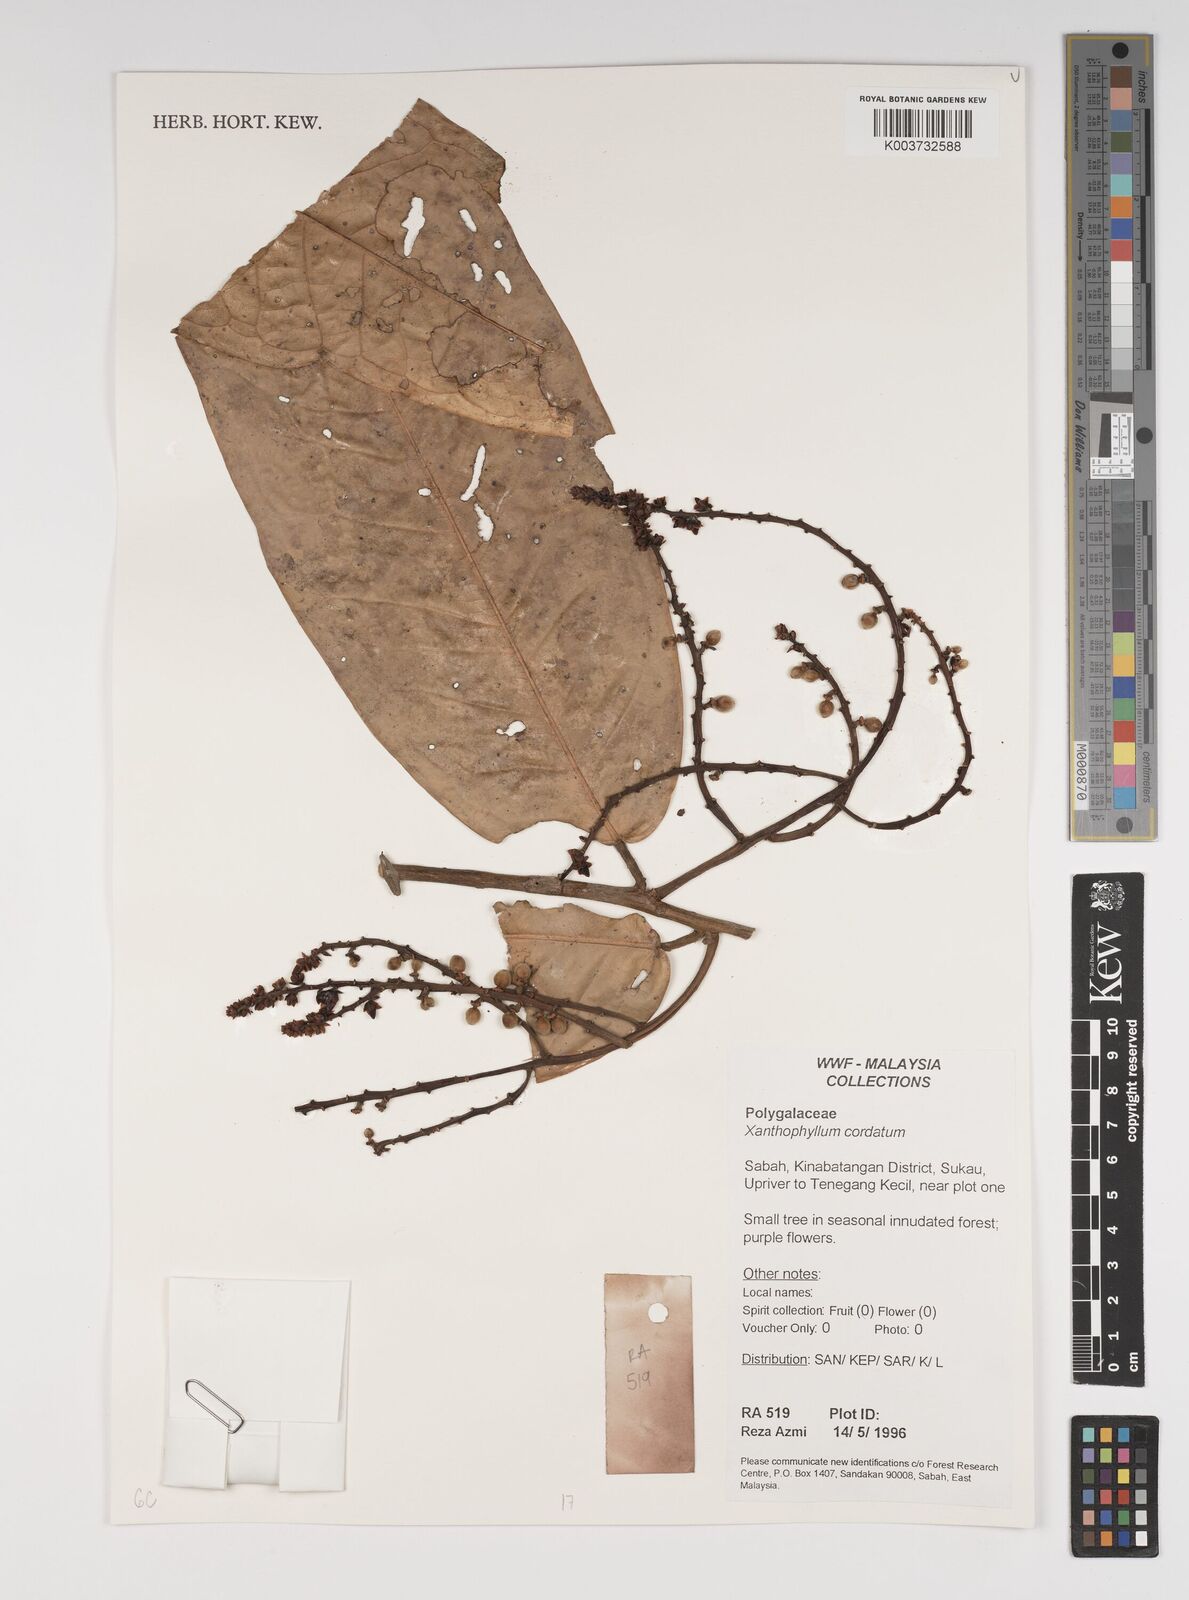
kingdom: Plantae
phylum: Tracheophyta
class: Magnoliopsida
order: Fabales
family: Polygalaceae
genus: Xanthophyllum
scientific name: Xanthophyllum adenotus
